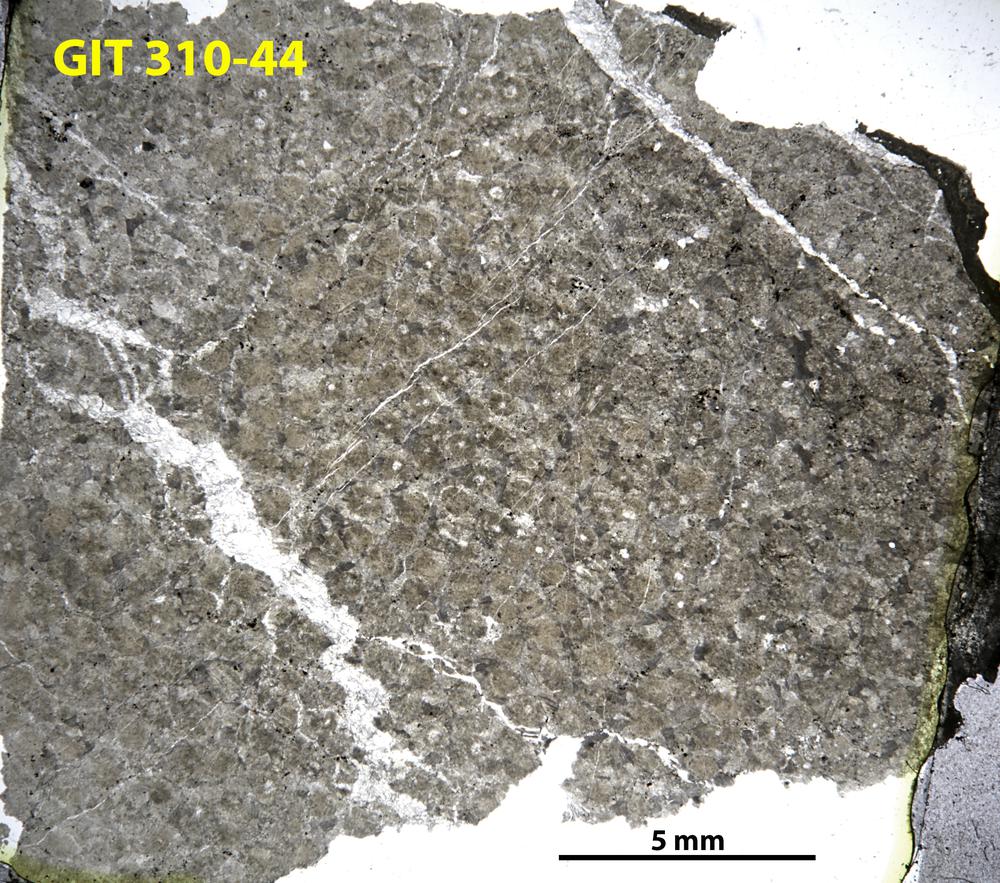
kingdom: Animalia
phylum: Porifera
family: Labechiidae
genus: Labechia
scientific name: Labechia
